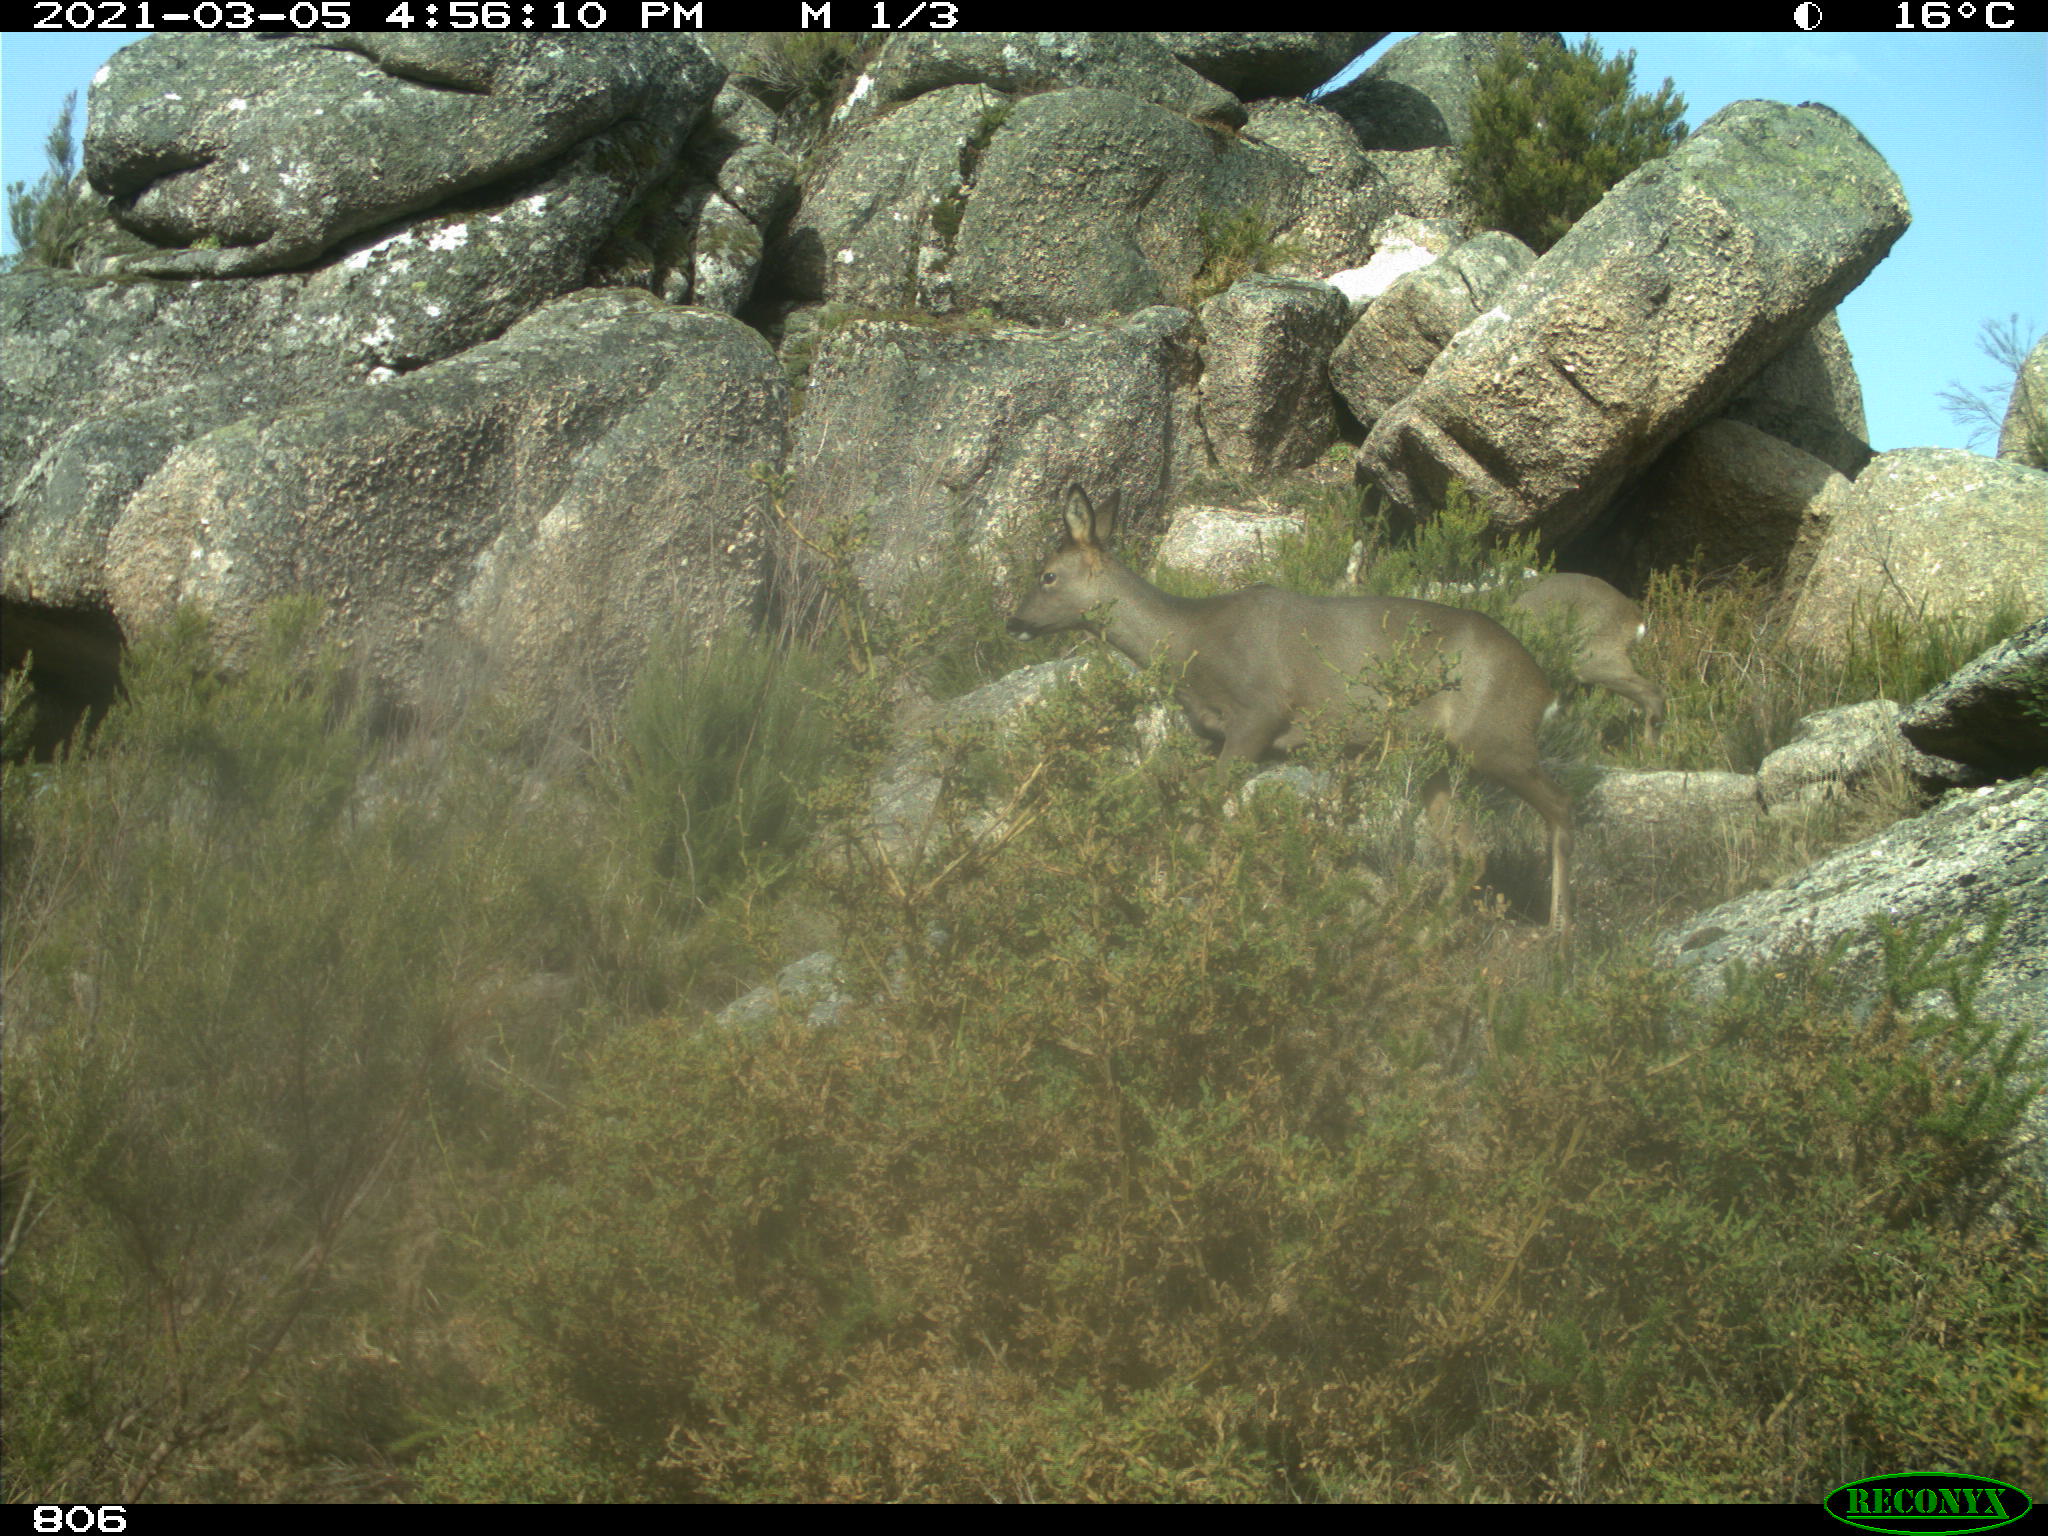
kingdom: Animalia
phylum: Chordata
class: Mammalia
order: Artiodactyla
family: Cervidae
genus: Capreolus
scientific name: Capreolus capreolus
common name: Western roe deer
